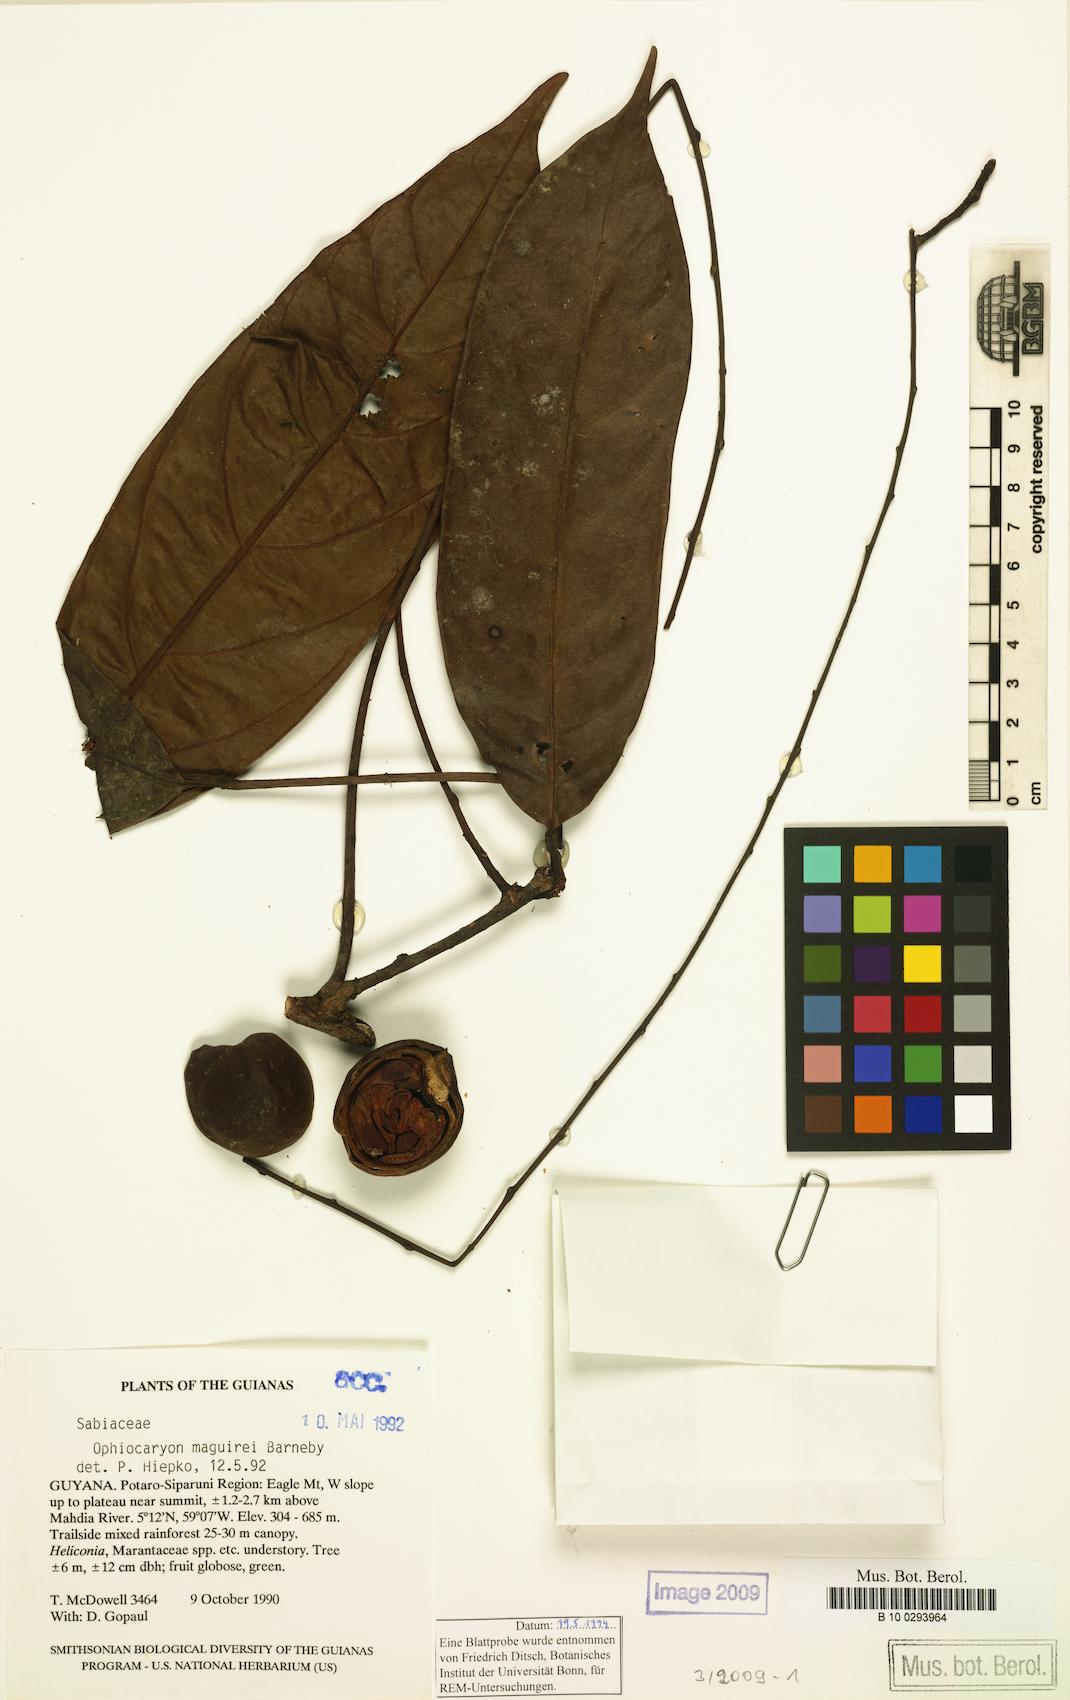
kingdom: Plantae
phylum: Tracheophyta
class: Magnoliopsida
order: Proteales
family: Sabiaceae
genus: Ophiocaryon
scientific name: Ophiocaryon maguirei
